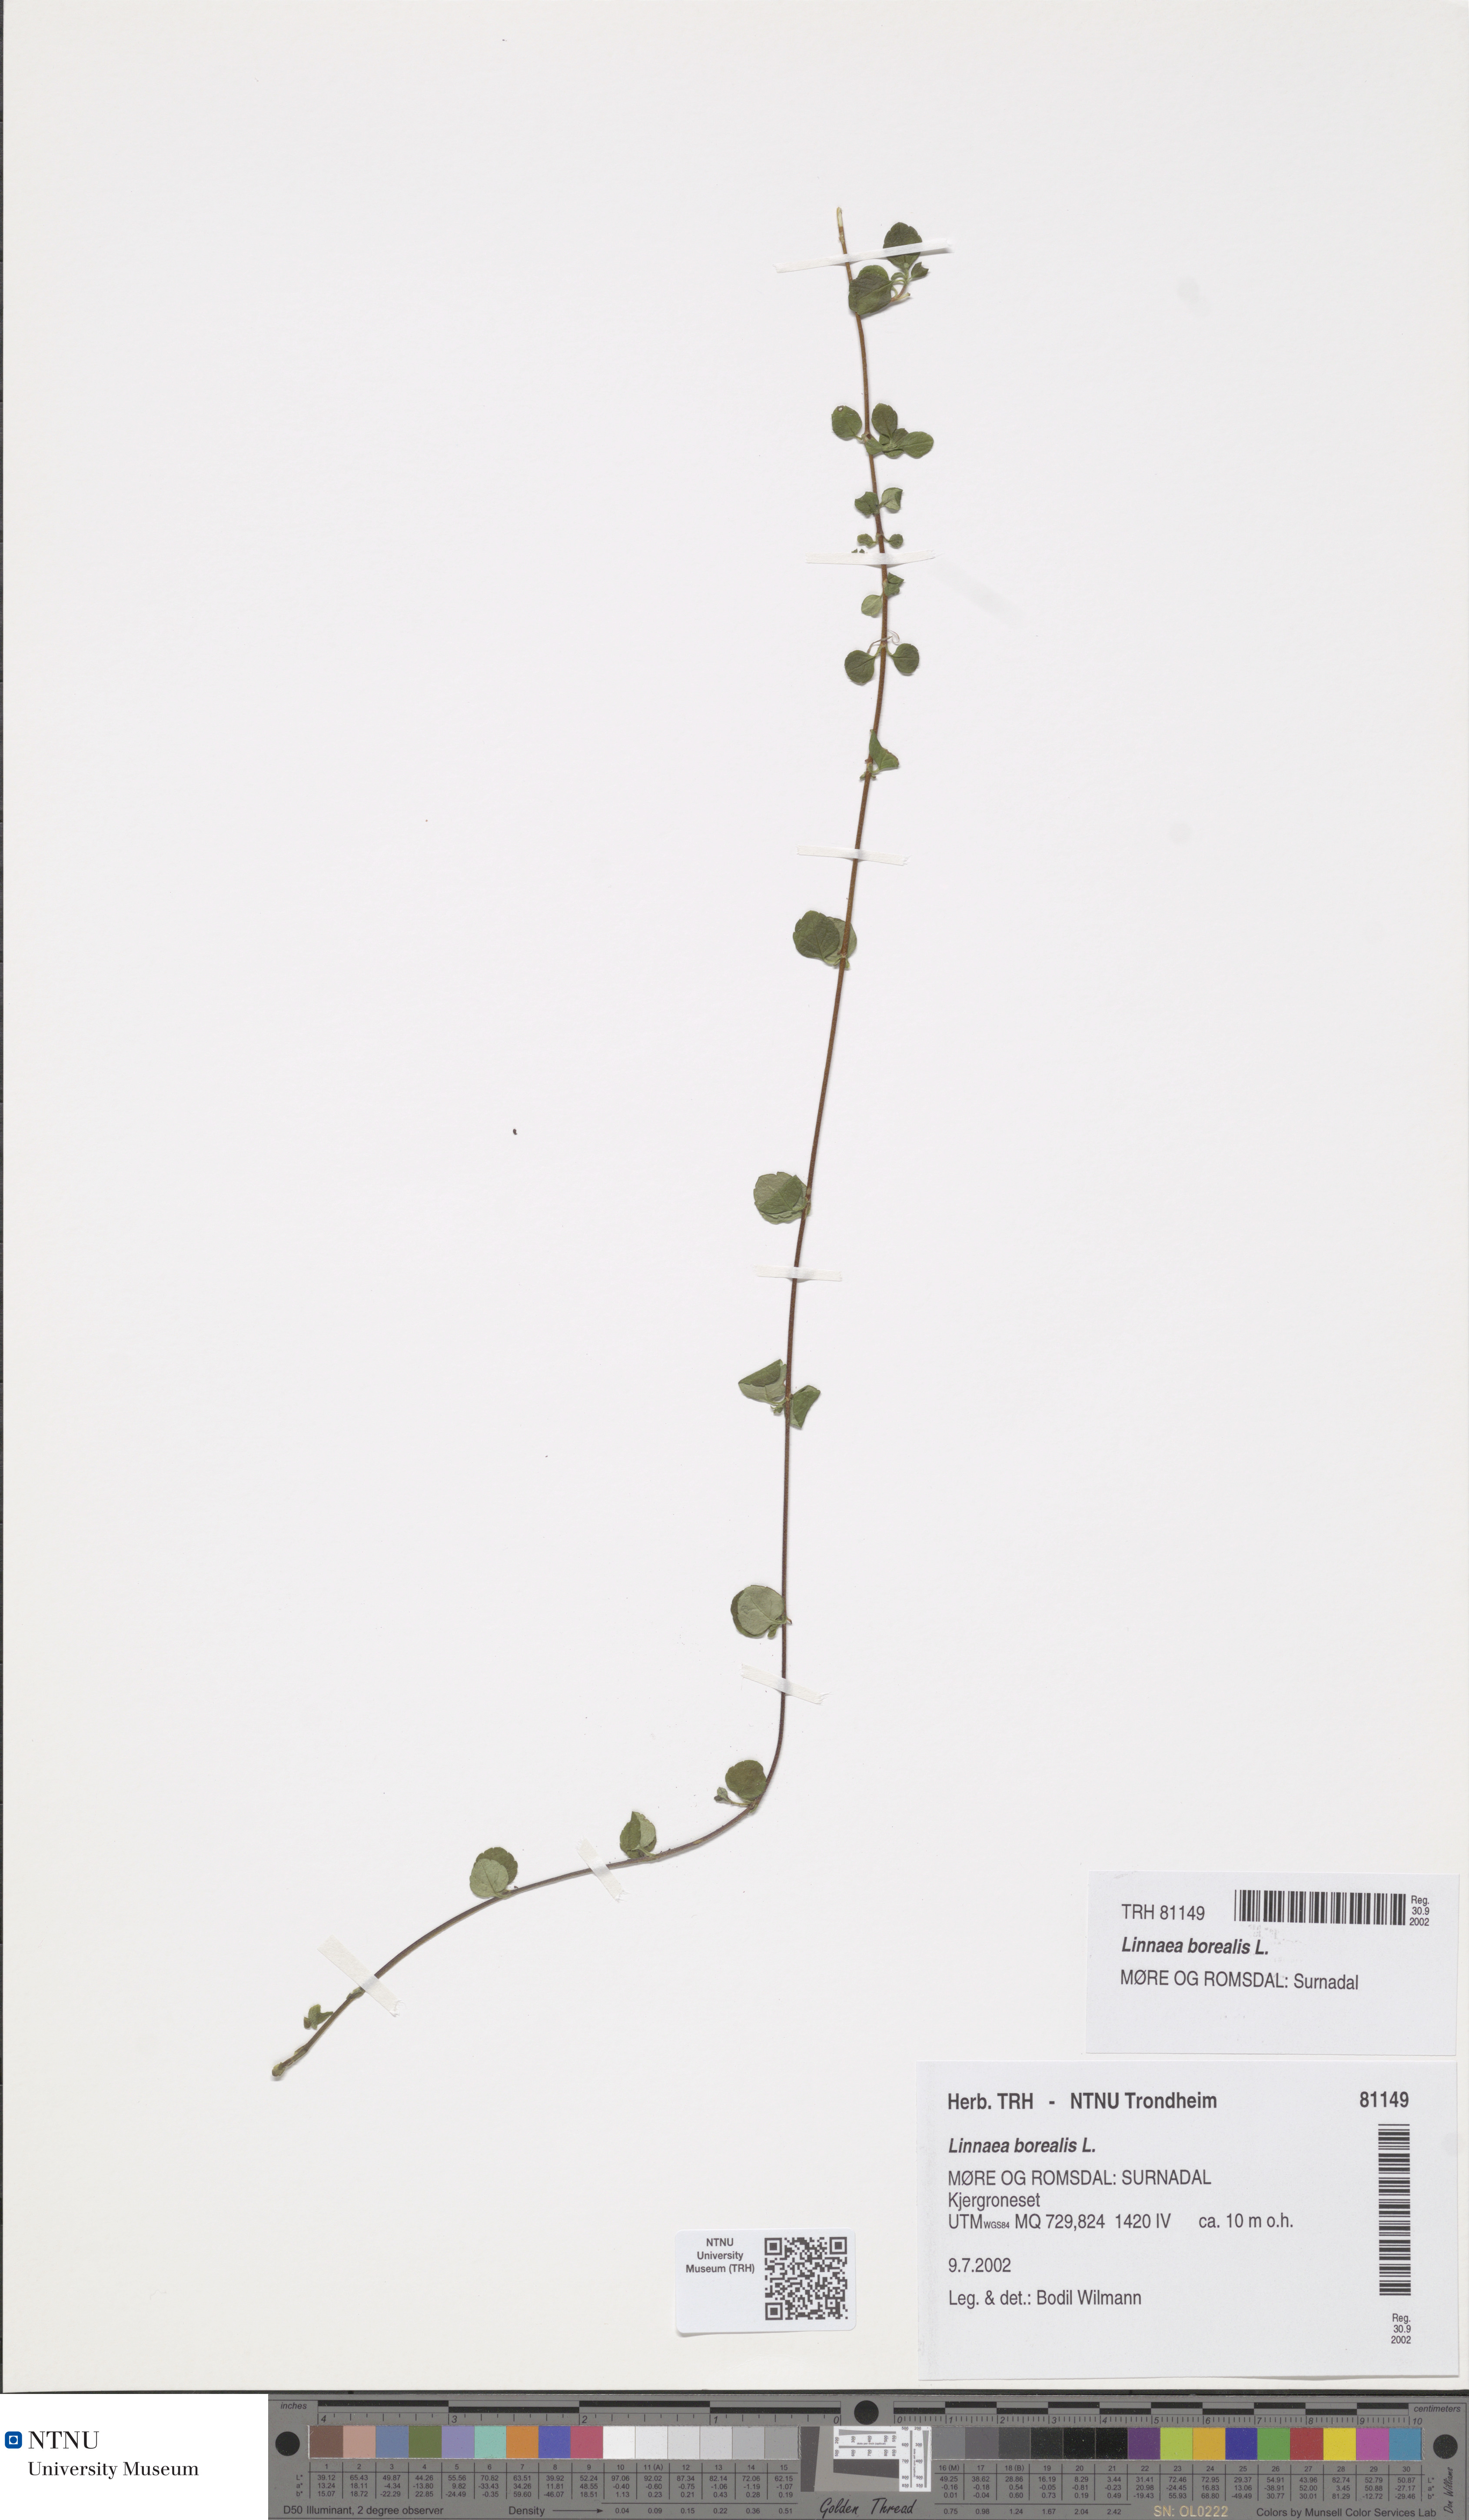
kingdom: Plantae
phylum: Tracheophyta
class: Magnoliopsida
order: Dipsacales
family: Caprifoliaceae
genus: Linnaea
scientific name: Linnaea borealis
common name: Twinflower
